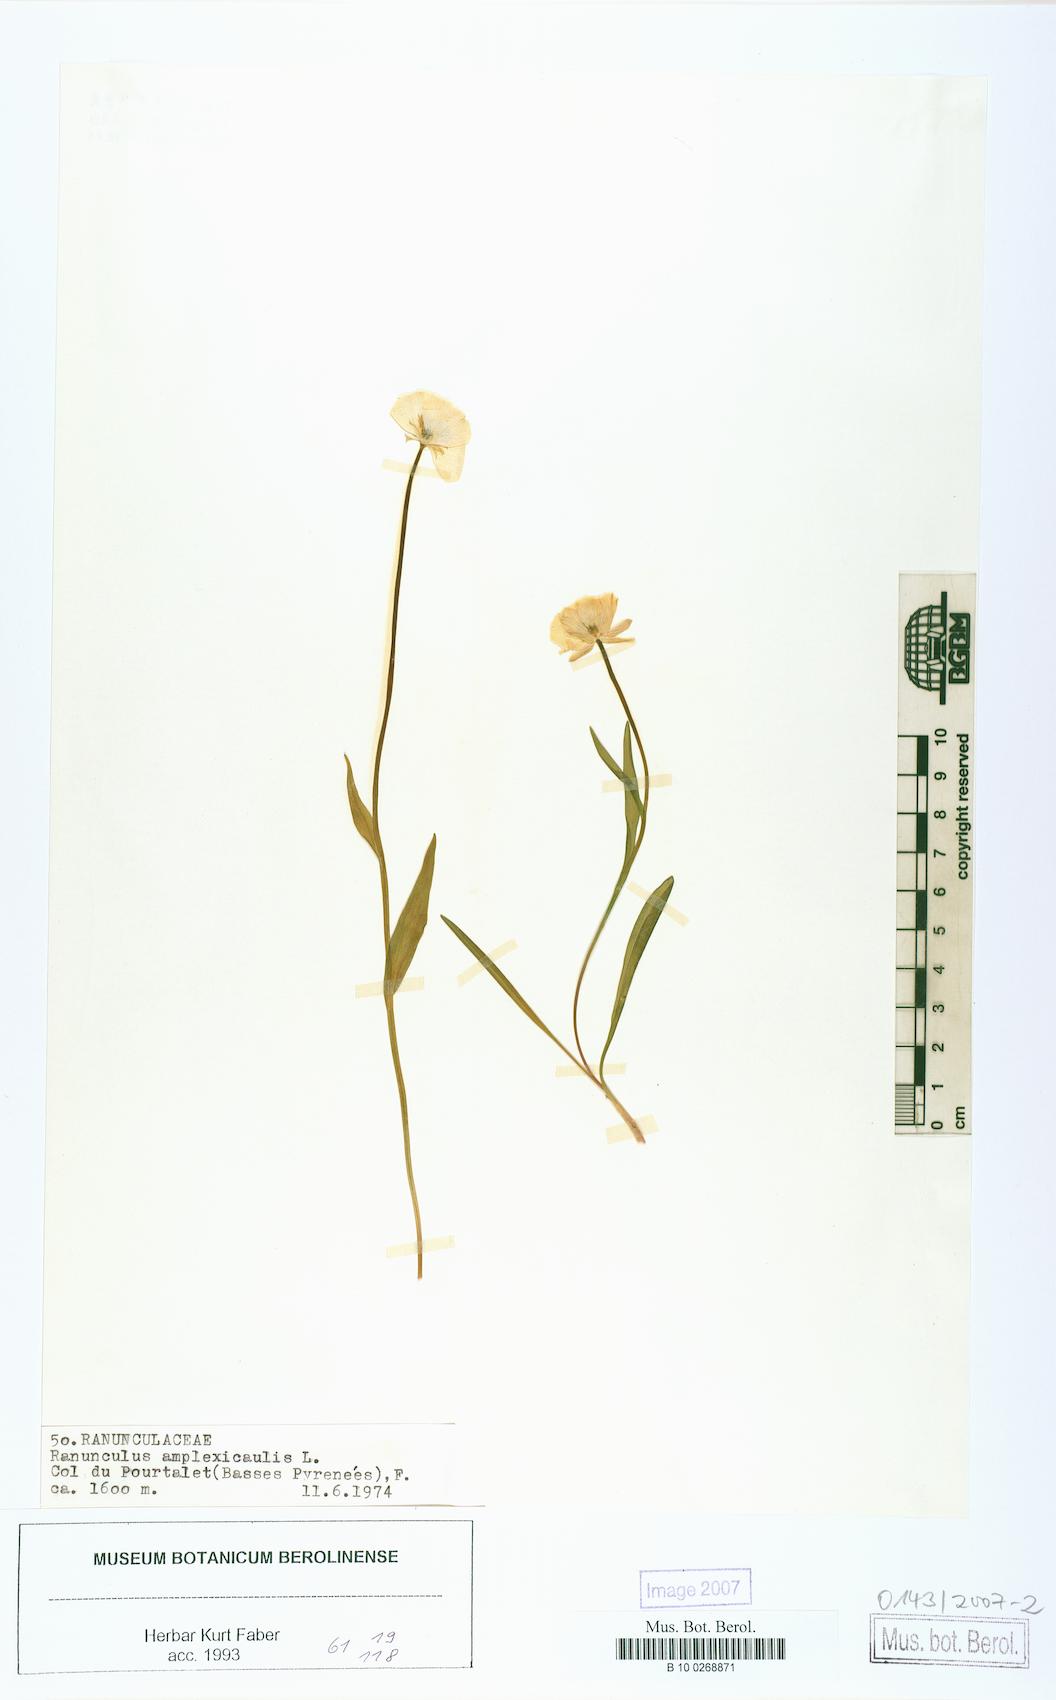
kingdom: Plantae
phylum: Tracheophyta
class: Magnoliopsida
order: Ranunculales
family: Ranunculaceae
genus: Ranunculus
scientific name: Ranunculus amplexicaulis
